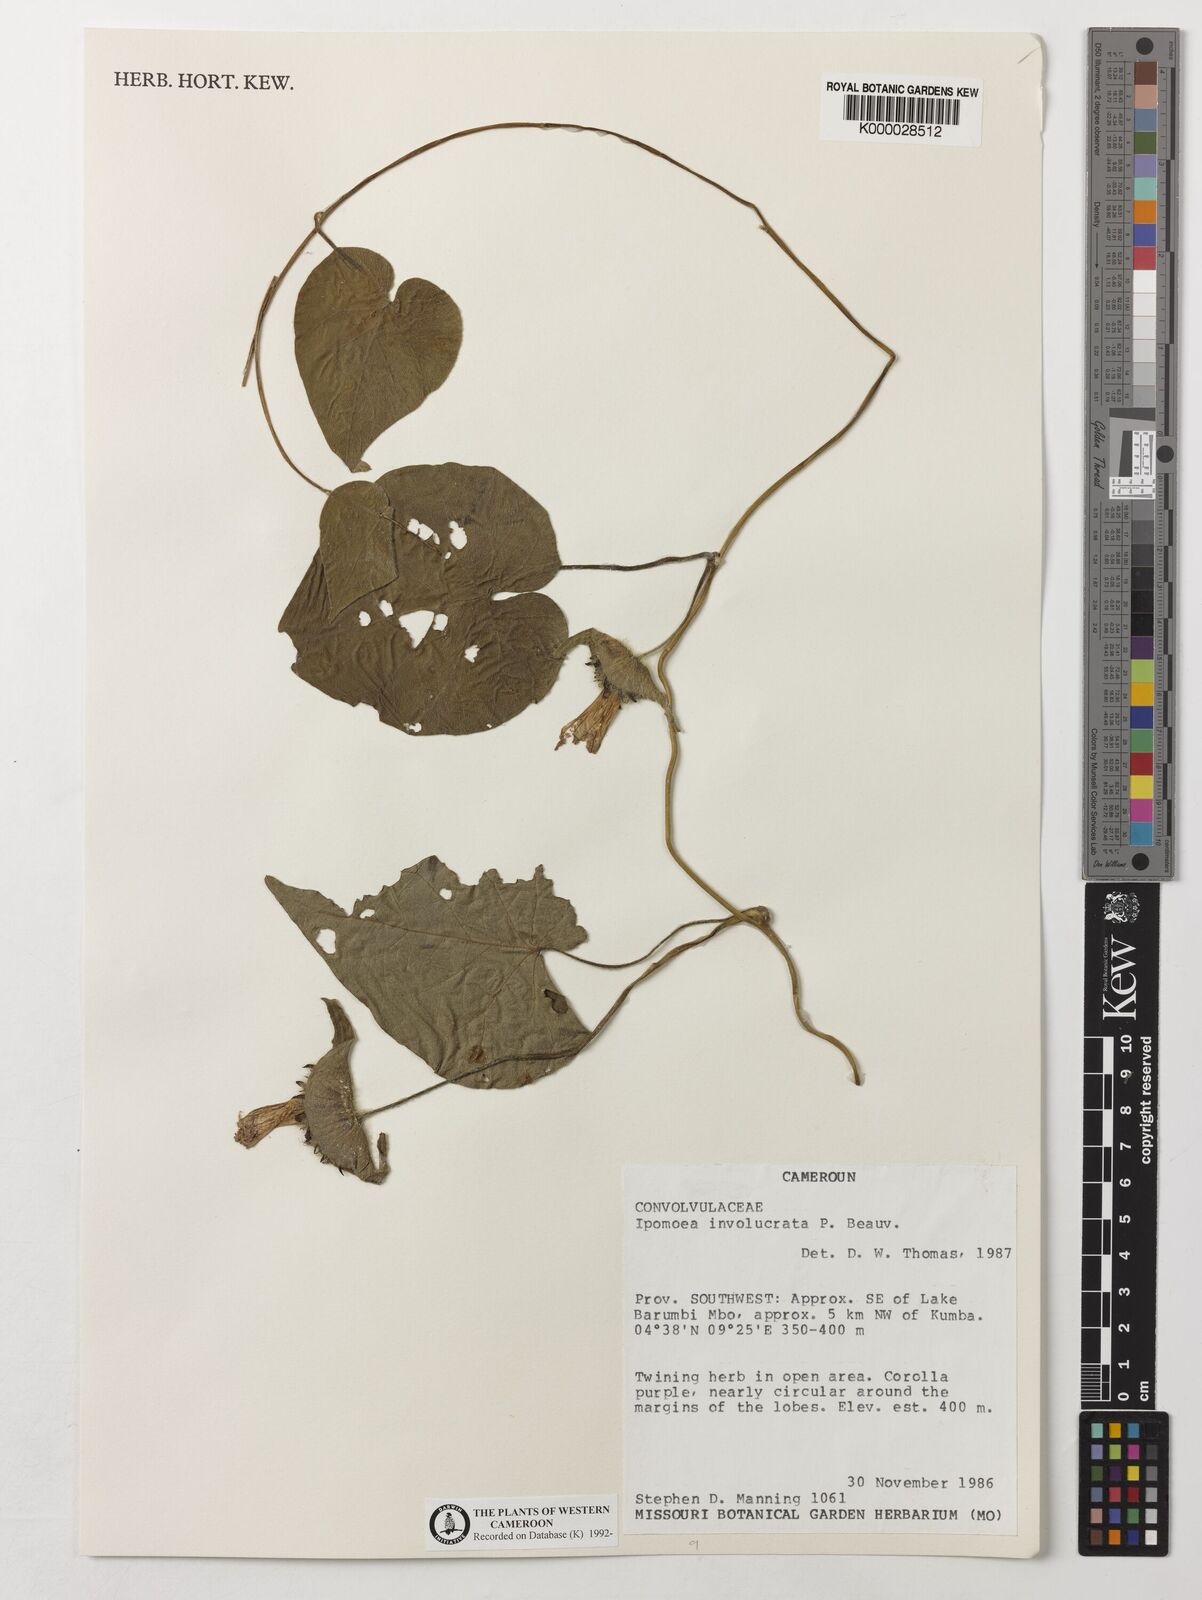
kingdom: Plantae
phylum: Tracheophyta
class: Magnoliopsida
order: Solanales
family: Convolvulaceae
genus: Ipomoea
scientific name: Ipomoea involucrata
